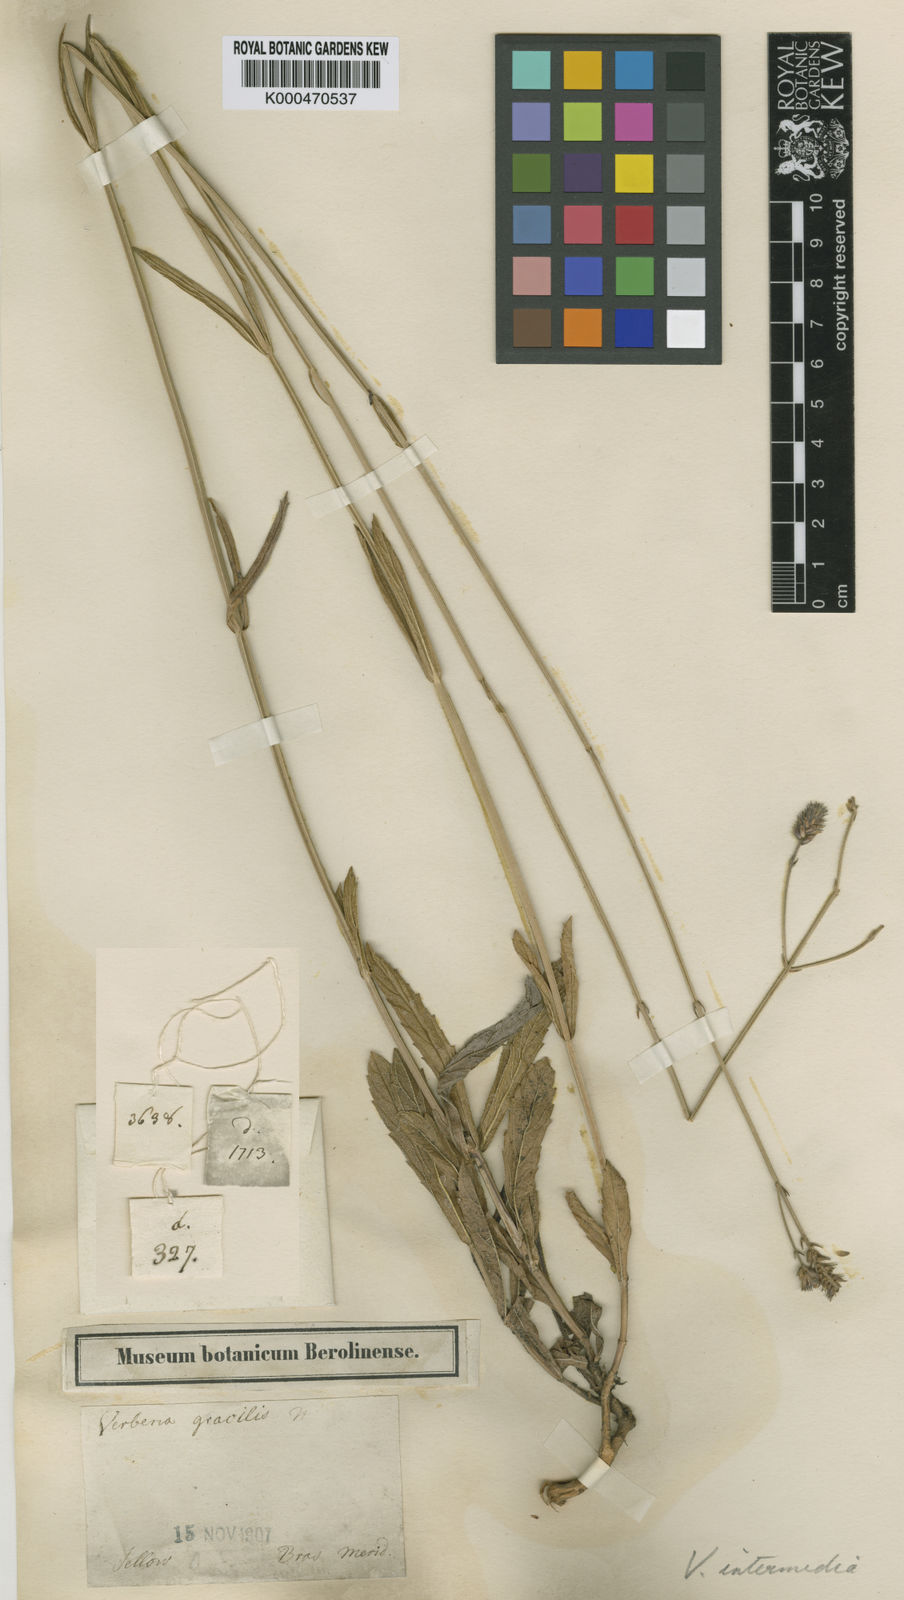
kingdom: Plantae
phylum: Tracheophyta
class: Magnoliopsida
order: Lamiales
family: Verbenaceae
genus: Verbena
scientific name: Verbena intermedia
